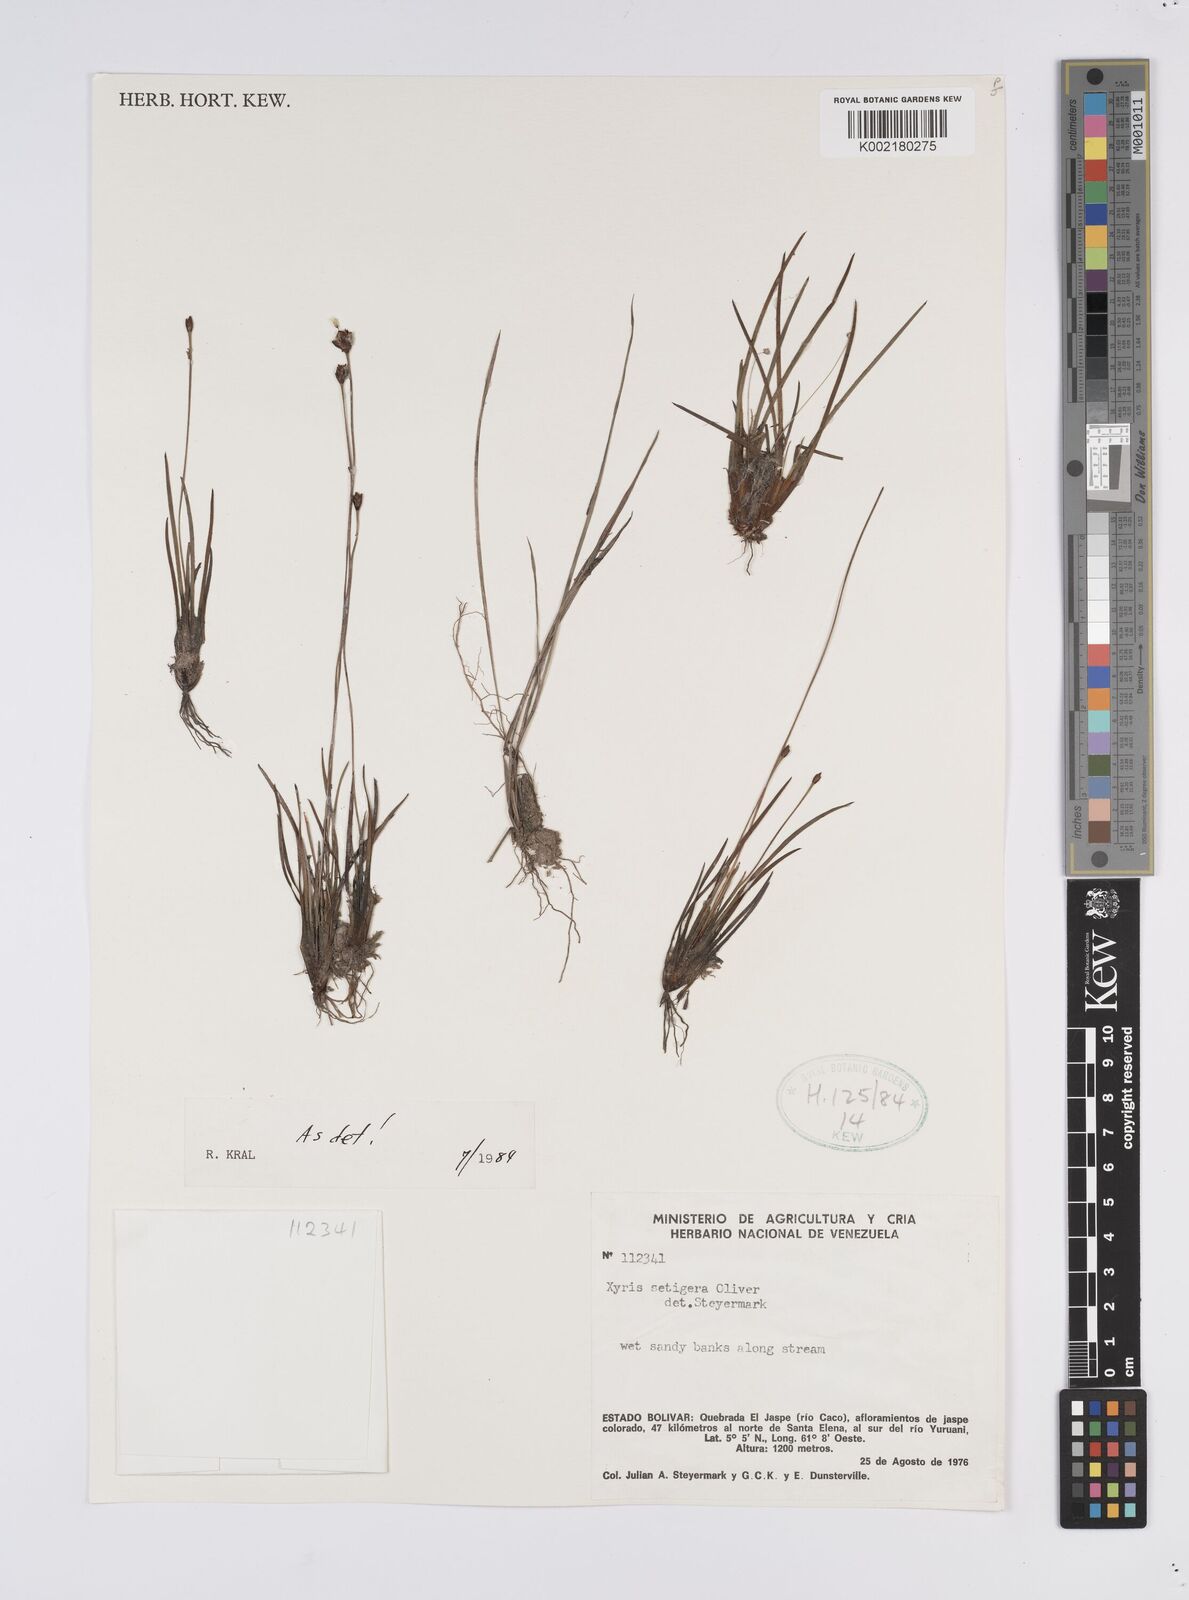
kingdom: Plantae
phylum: Tracheophyta
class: Liliopsida
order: Poales
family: Xyridaceae
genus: Xyris
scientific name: Xyris setigera
